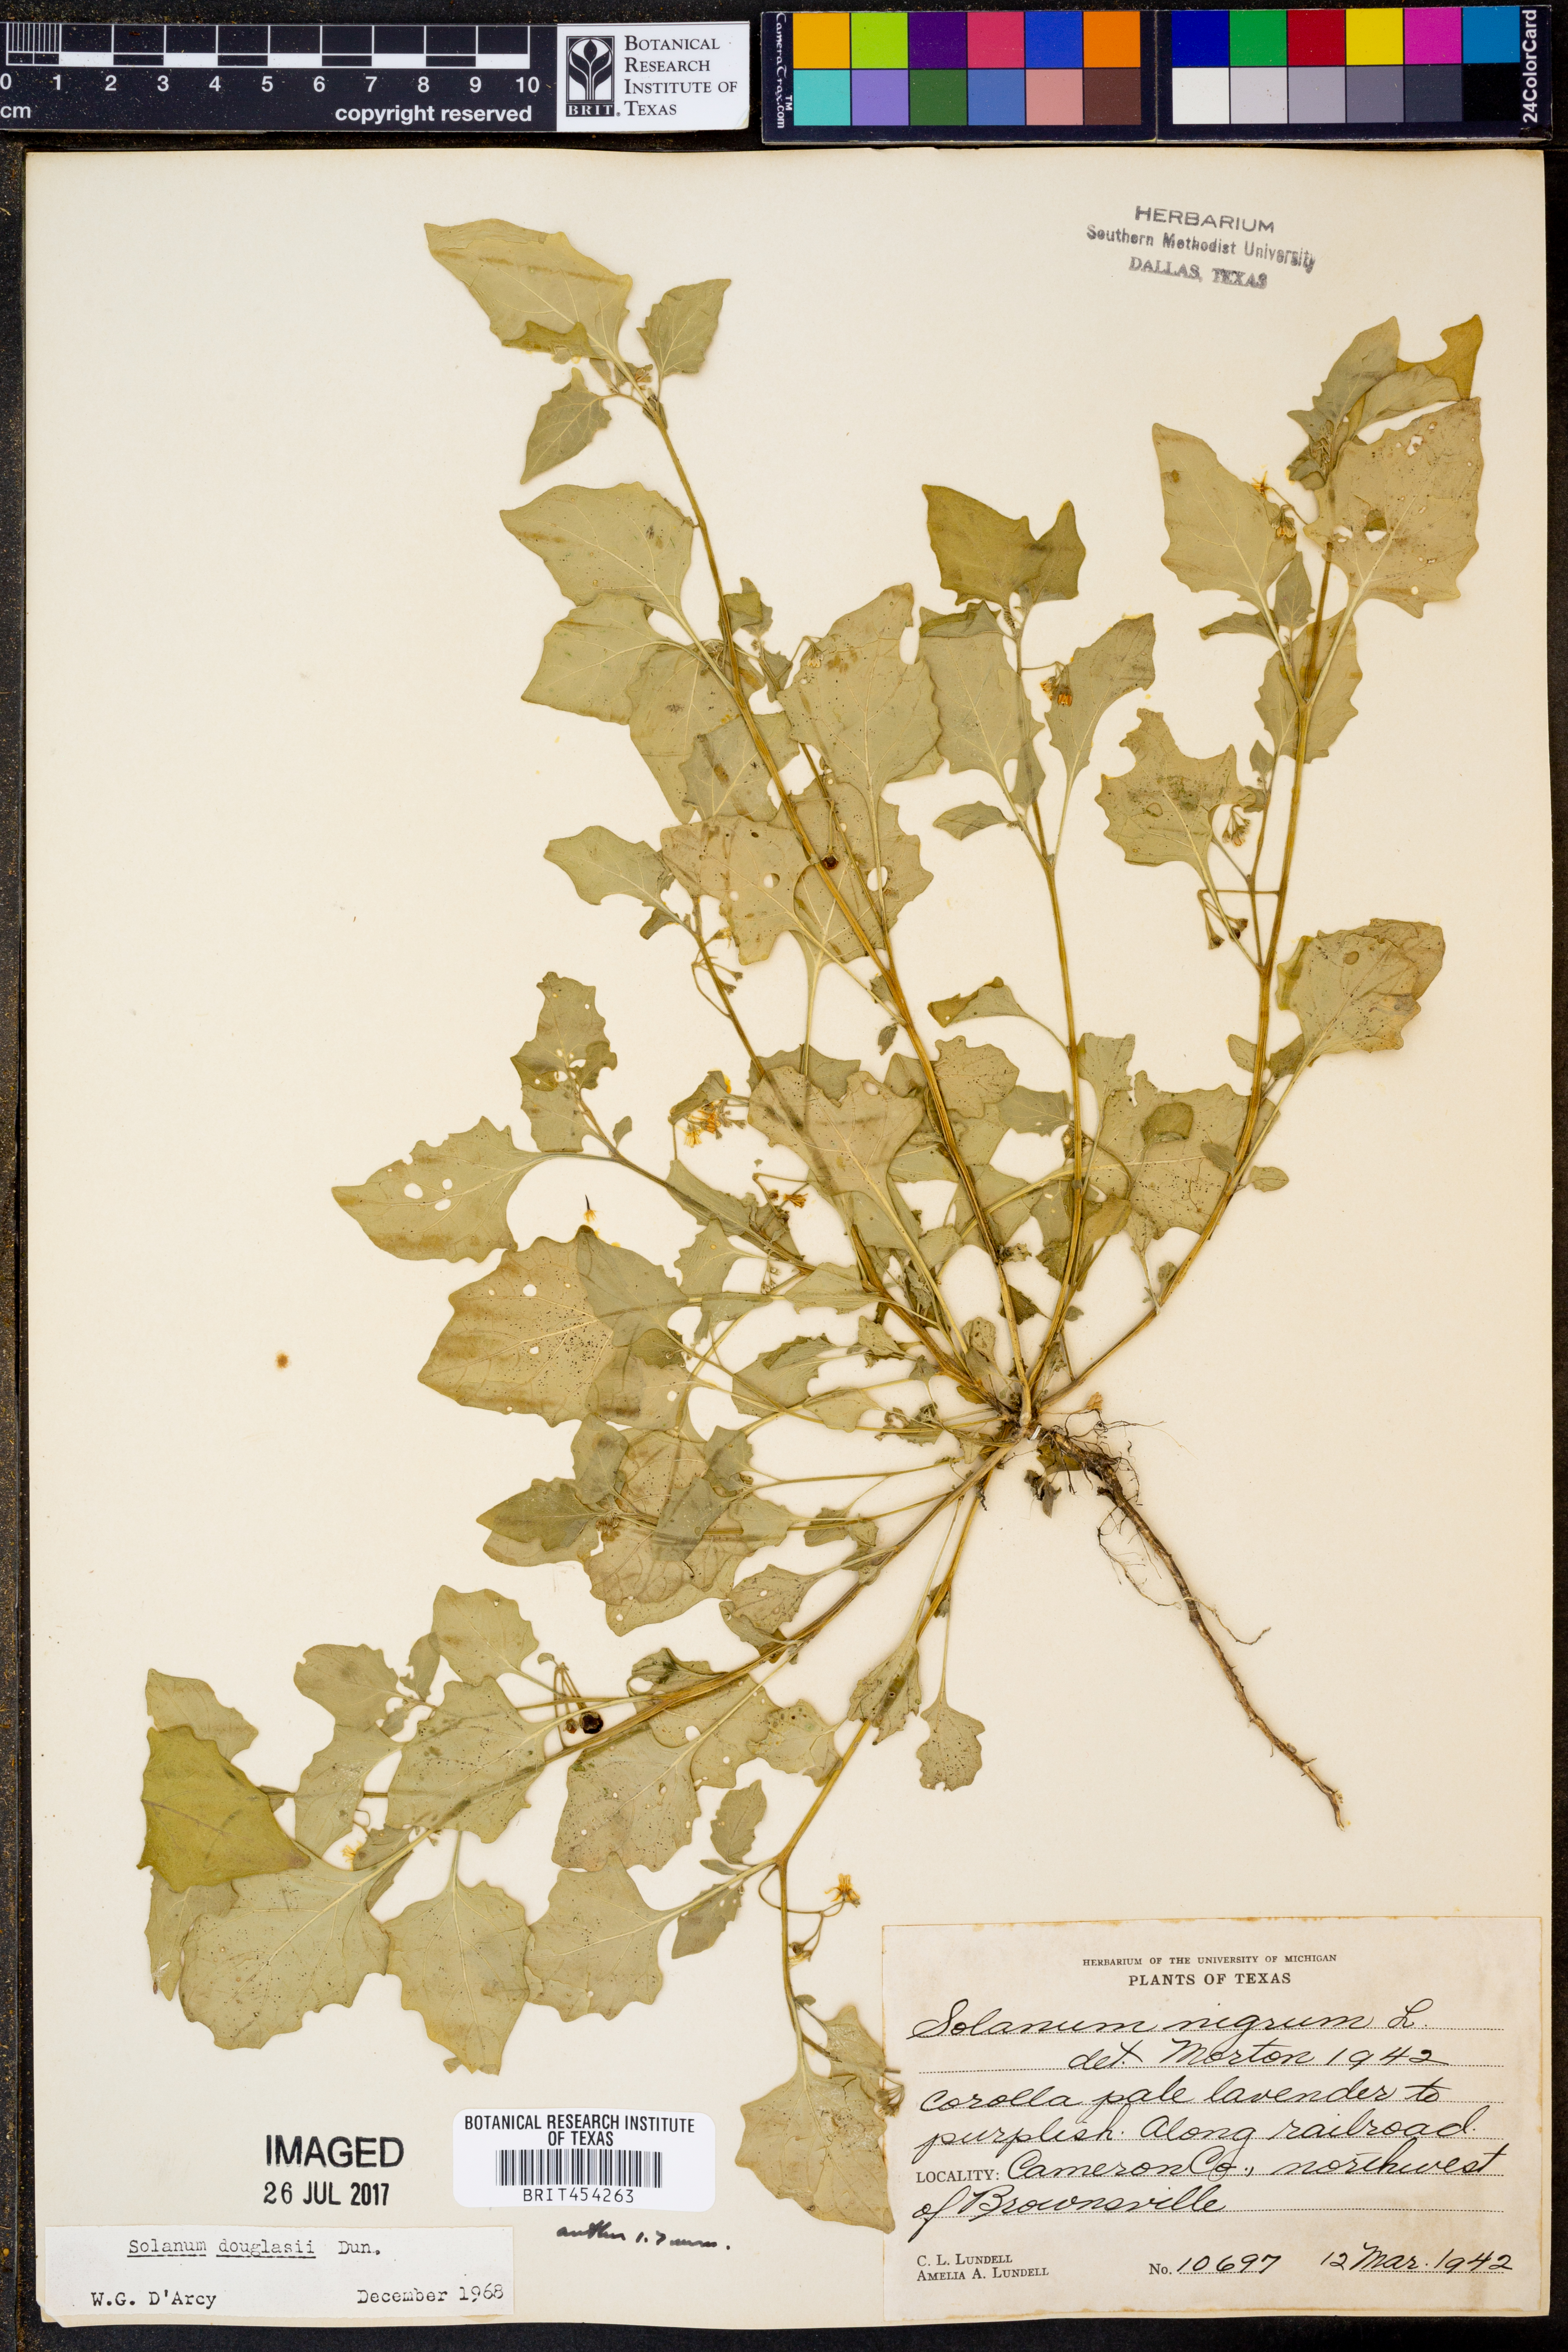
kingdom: Plantae
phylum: Tracheophyta
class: Magnoliopsida
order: Solanales
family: Solanaceae
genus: Solanum
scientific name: Solanum nigrum
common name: Black nightshade
